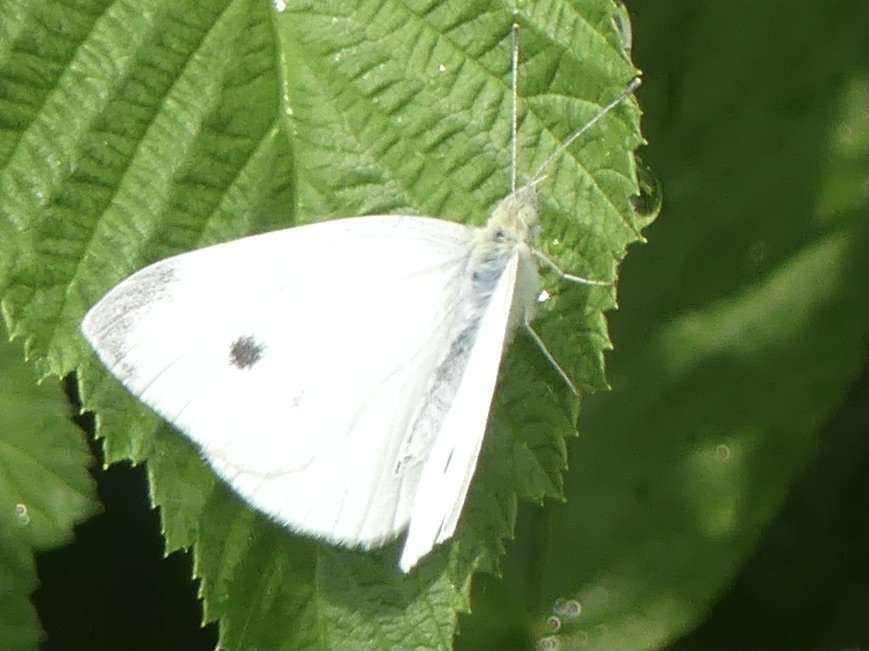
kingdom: Animalia
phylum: Arthropoda
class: Insecta
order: Lepidoptera
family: Pieridae
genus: Pieris
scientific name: Pieris rapae
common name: Cabbage White
